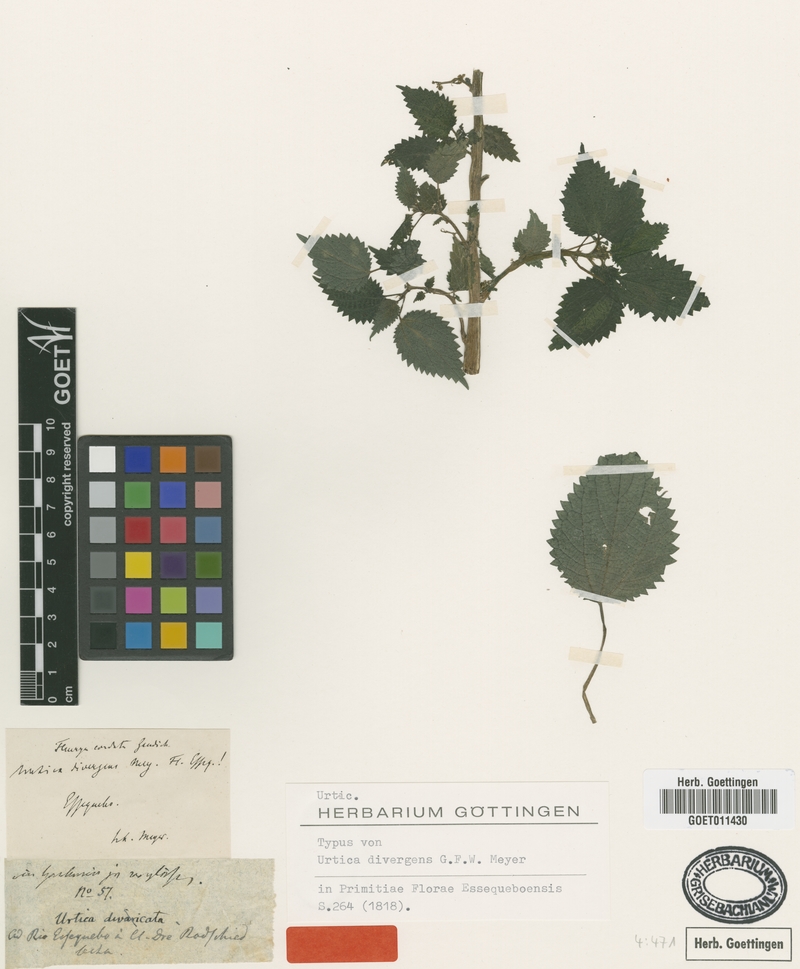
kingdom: Plantae
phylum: Tracheophyta
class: Magnoliopsida
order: Rosales
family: Urticaceae
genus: Laportea
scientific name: Laportea aestuans
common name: West indian woodnettle
